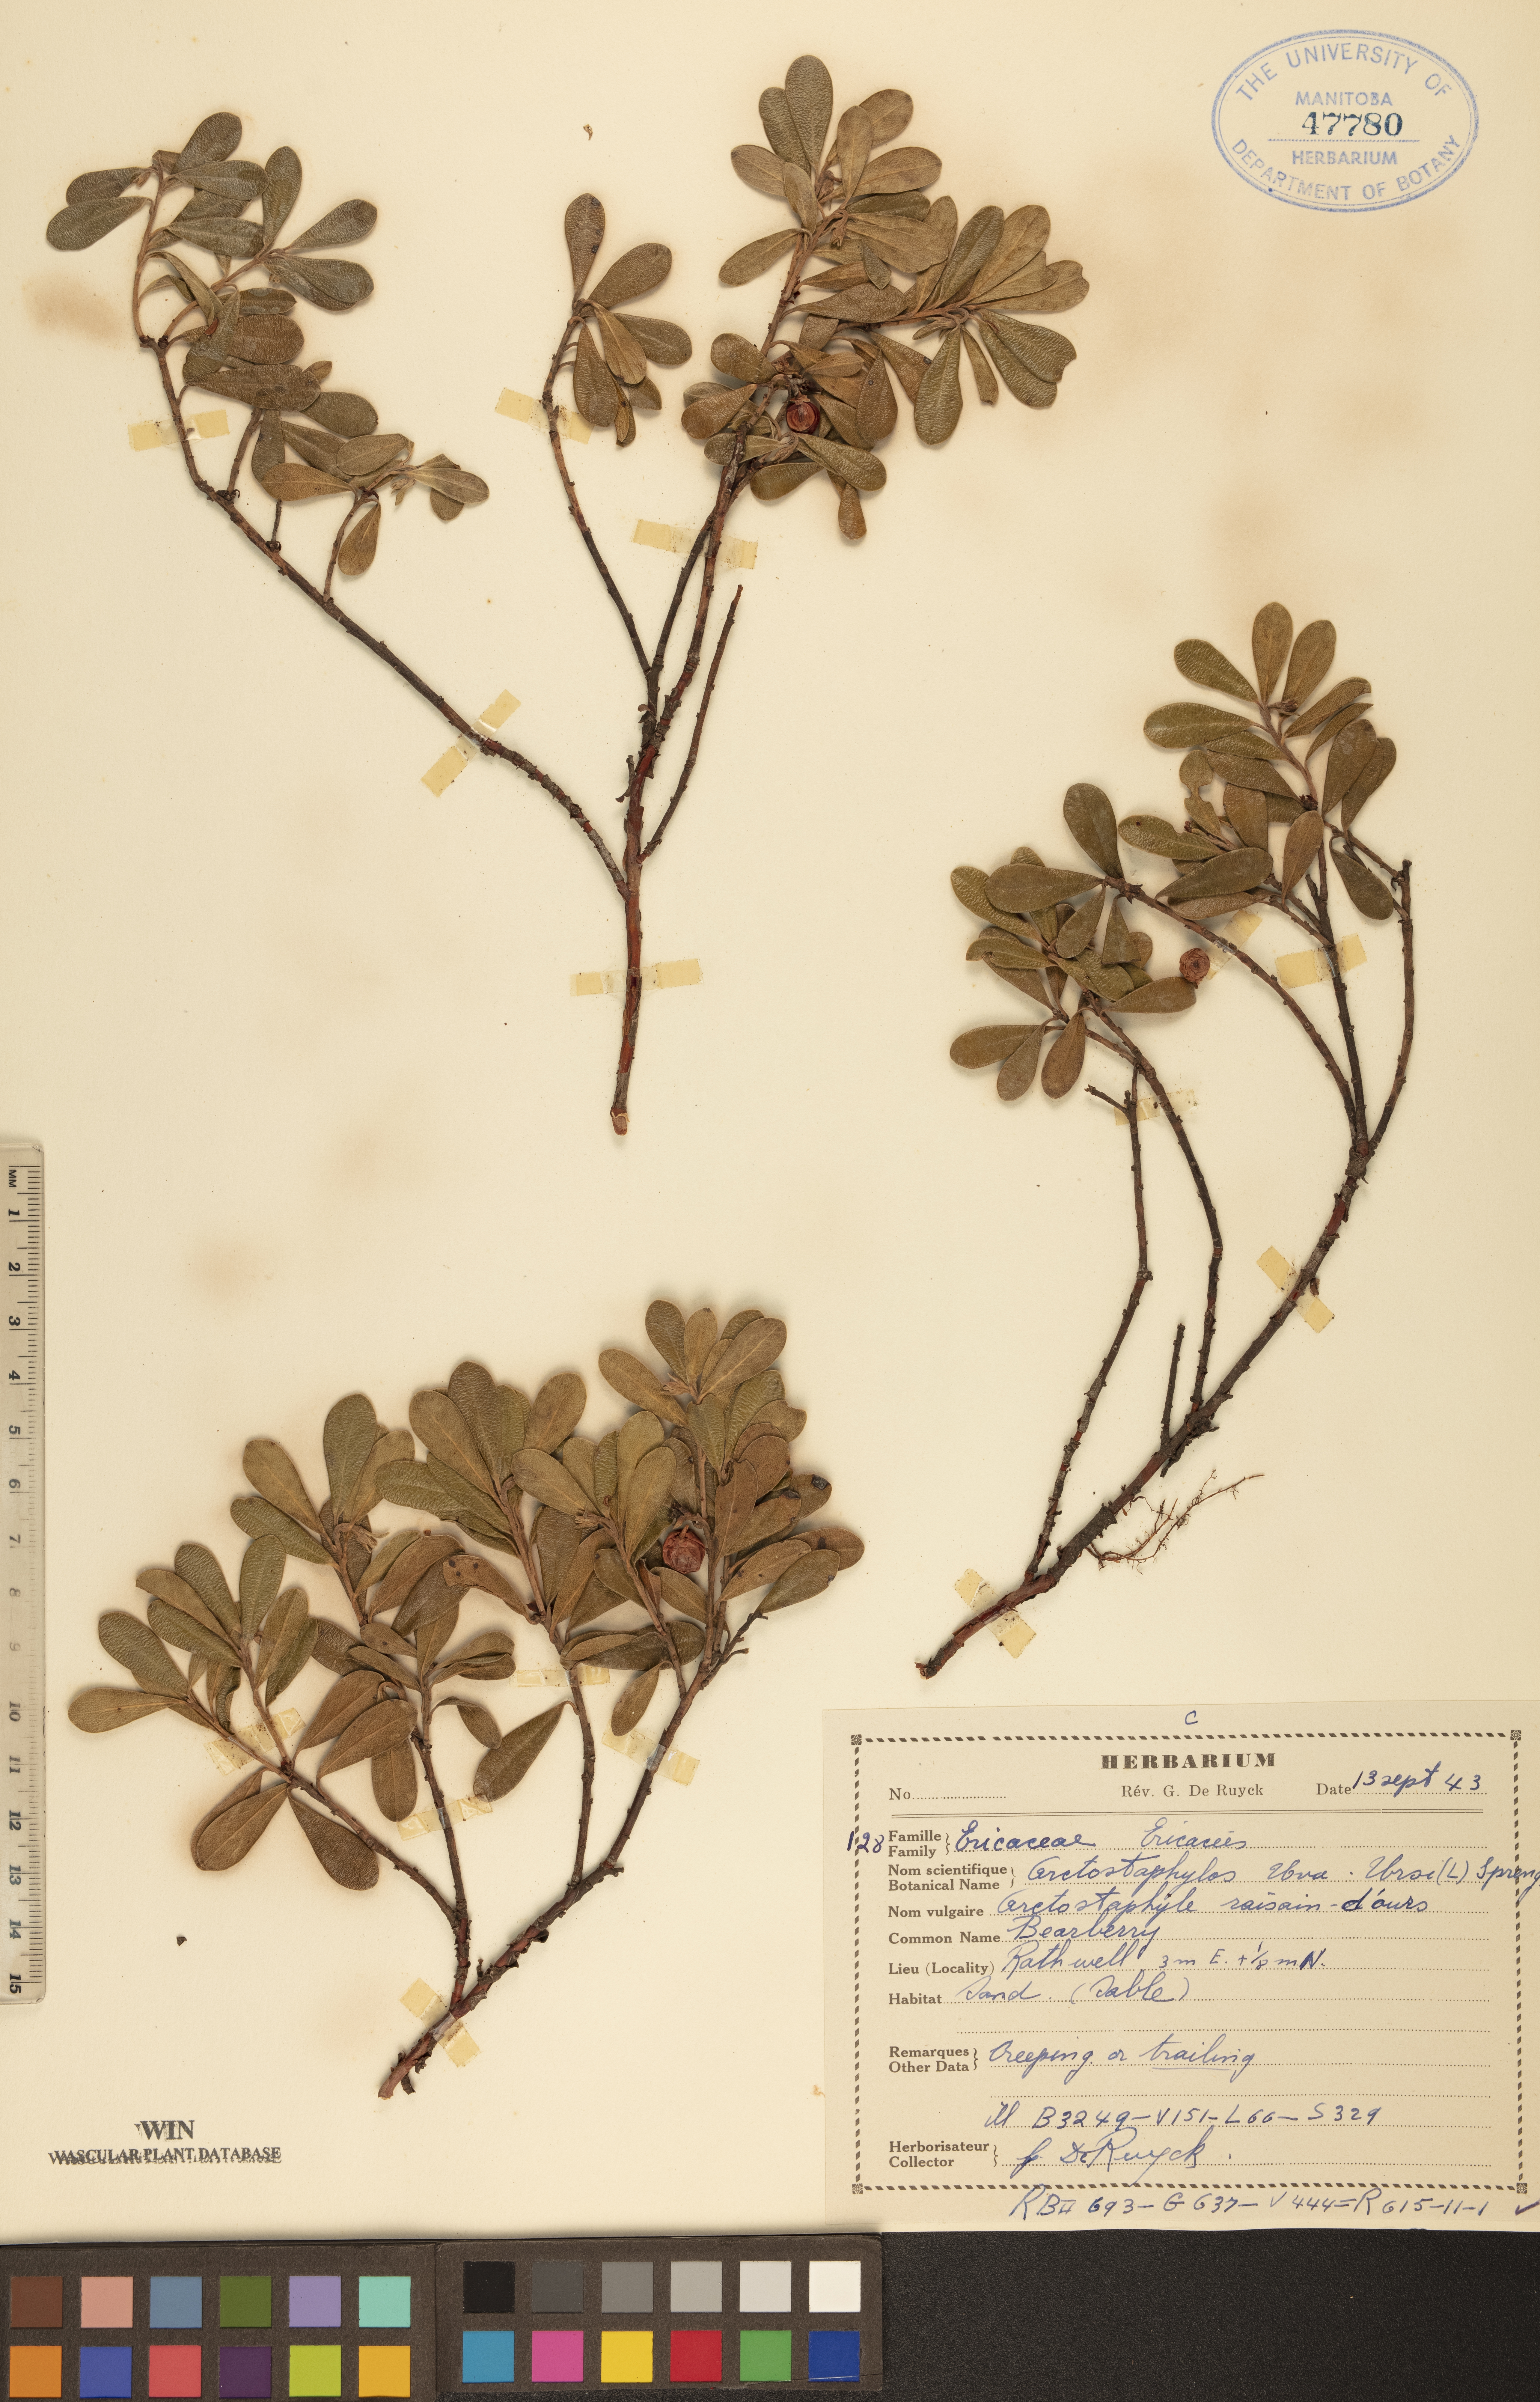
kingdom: Plantae
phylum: Tracheophyta
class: Magnoliopsida
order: Ericales
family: Ericaceae
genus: Arctostaphylos
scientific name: Arctostaphylos uva-ursi
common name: Bearberry
